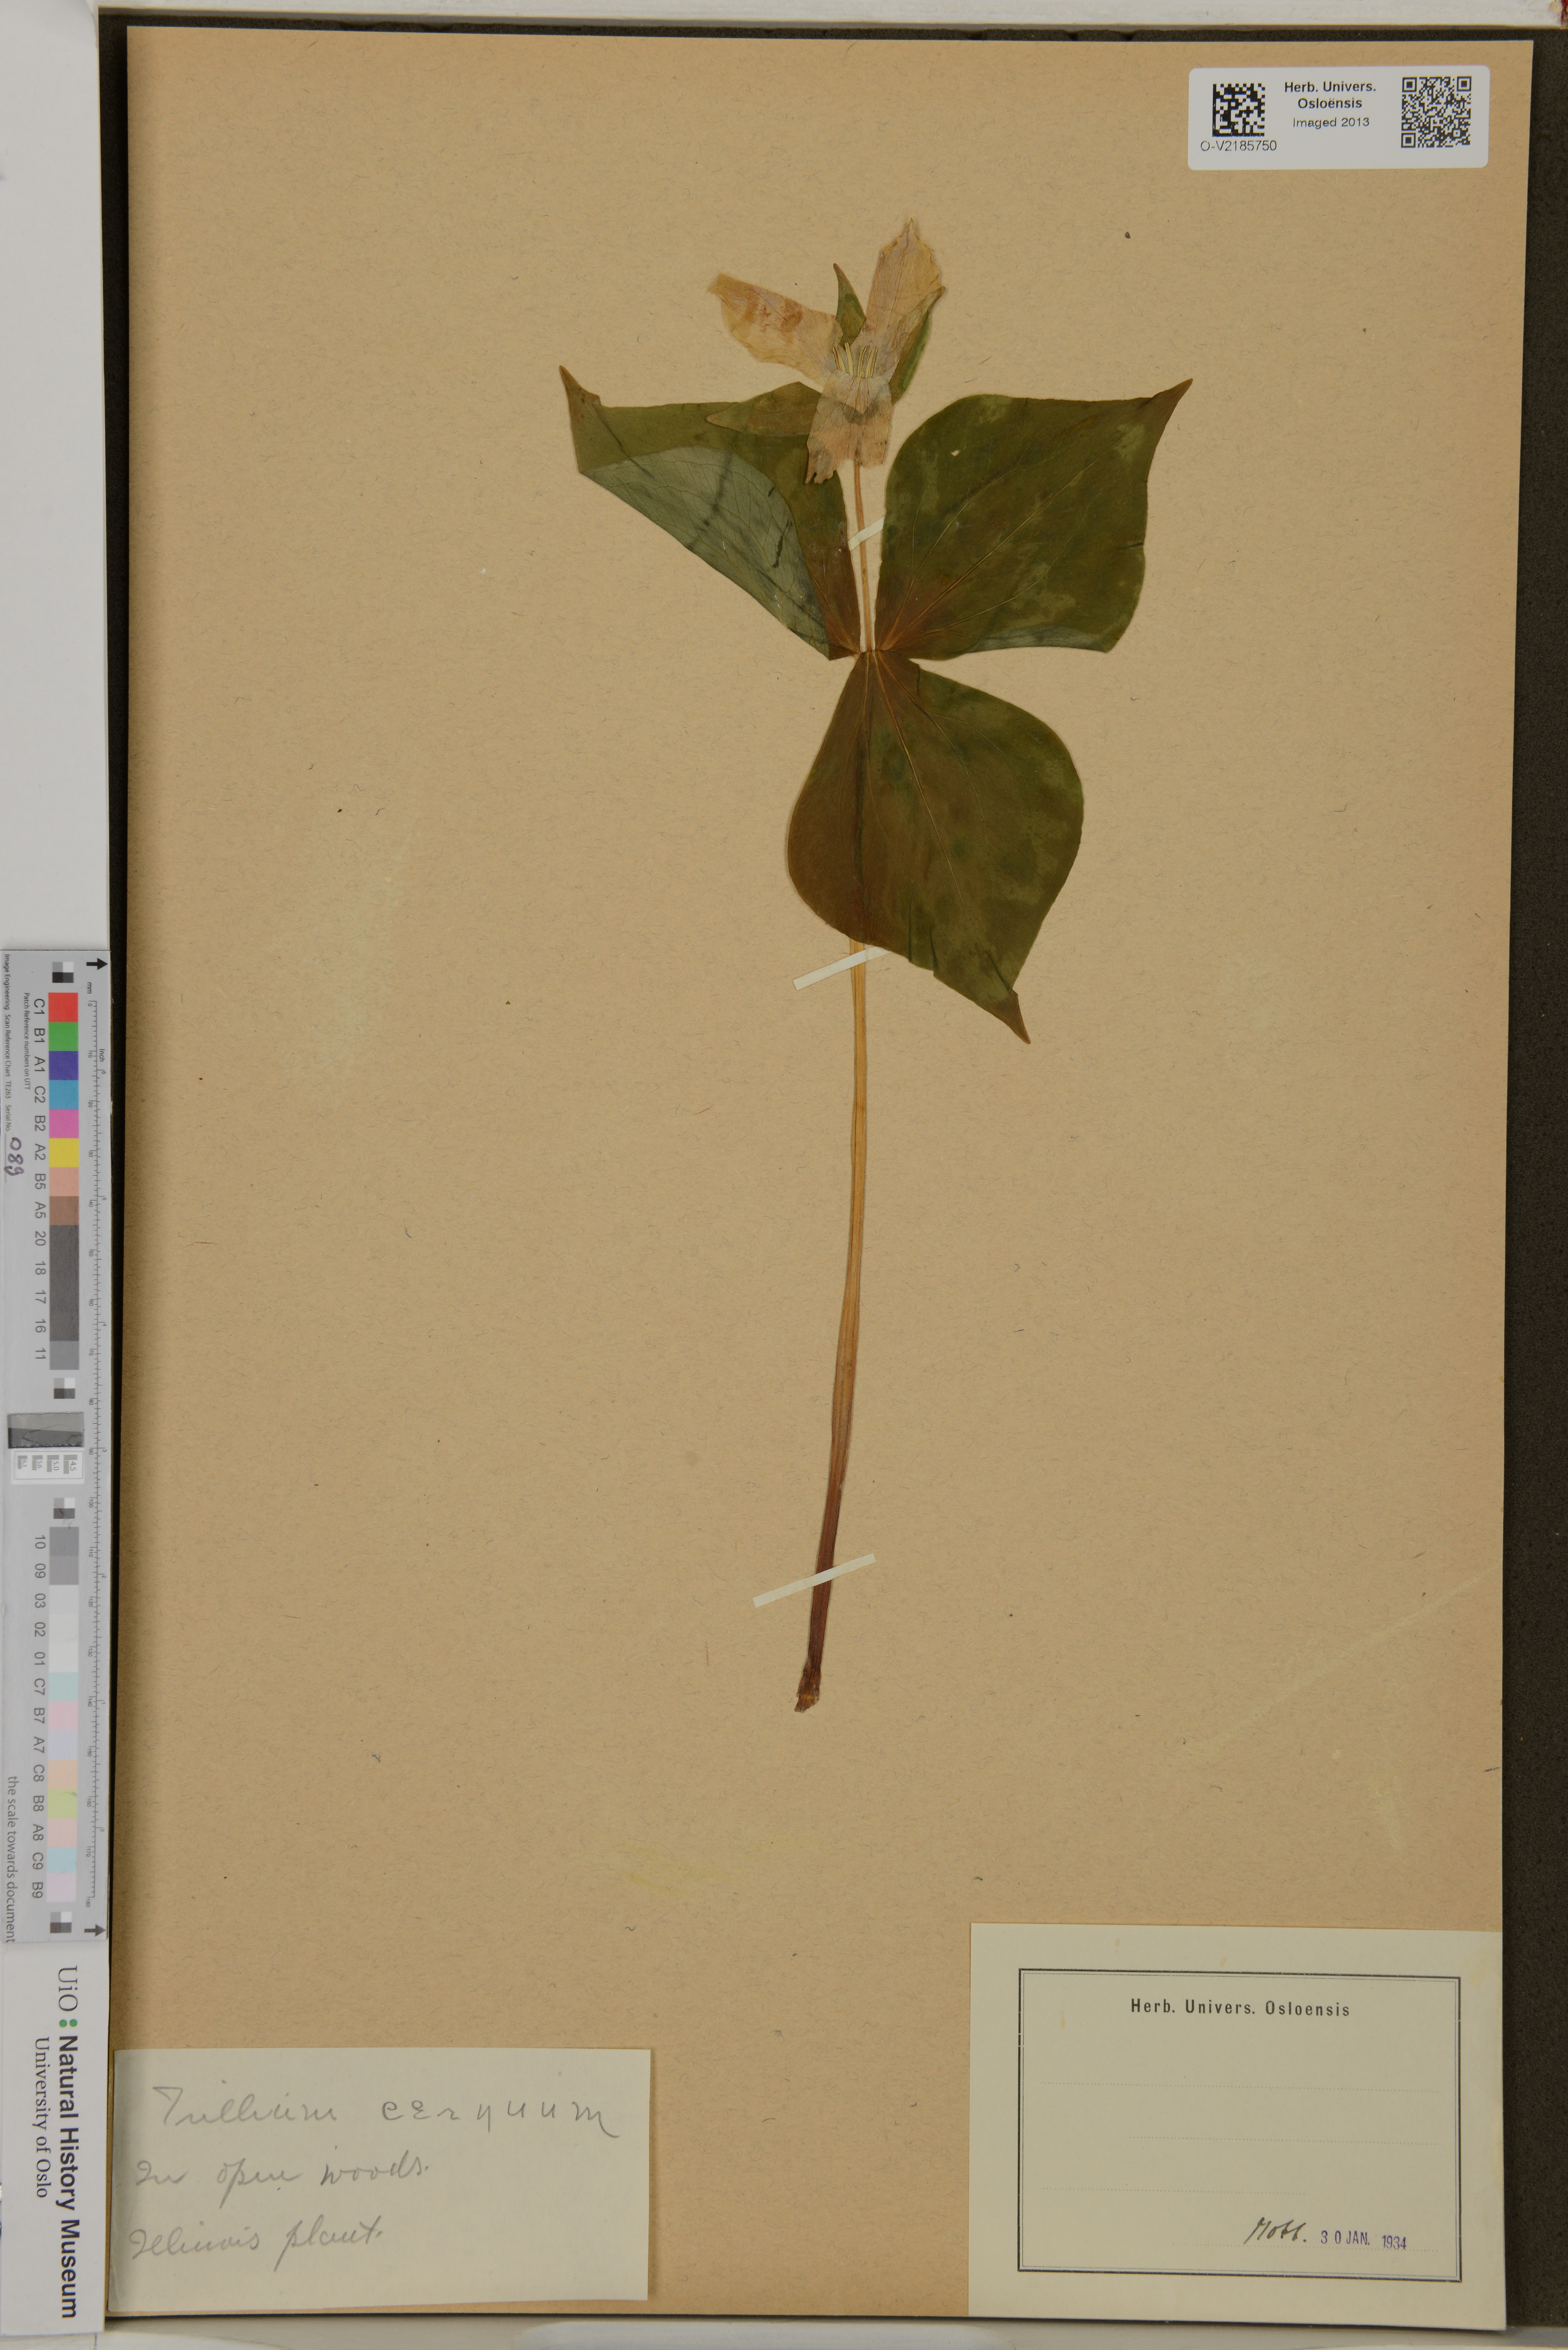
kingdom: Plantae
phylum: Tracheophyta
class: Liliopsida
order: Liliales
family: Melanthiaceae
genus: Trillium
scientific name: Trillium cernuum
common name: Nodding trillium
